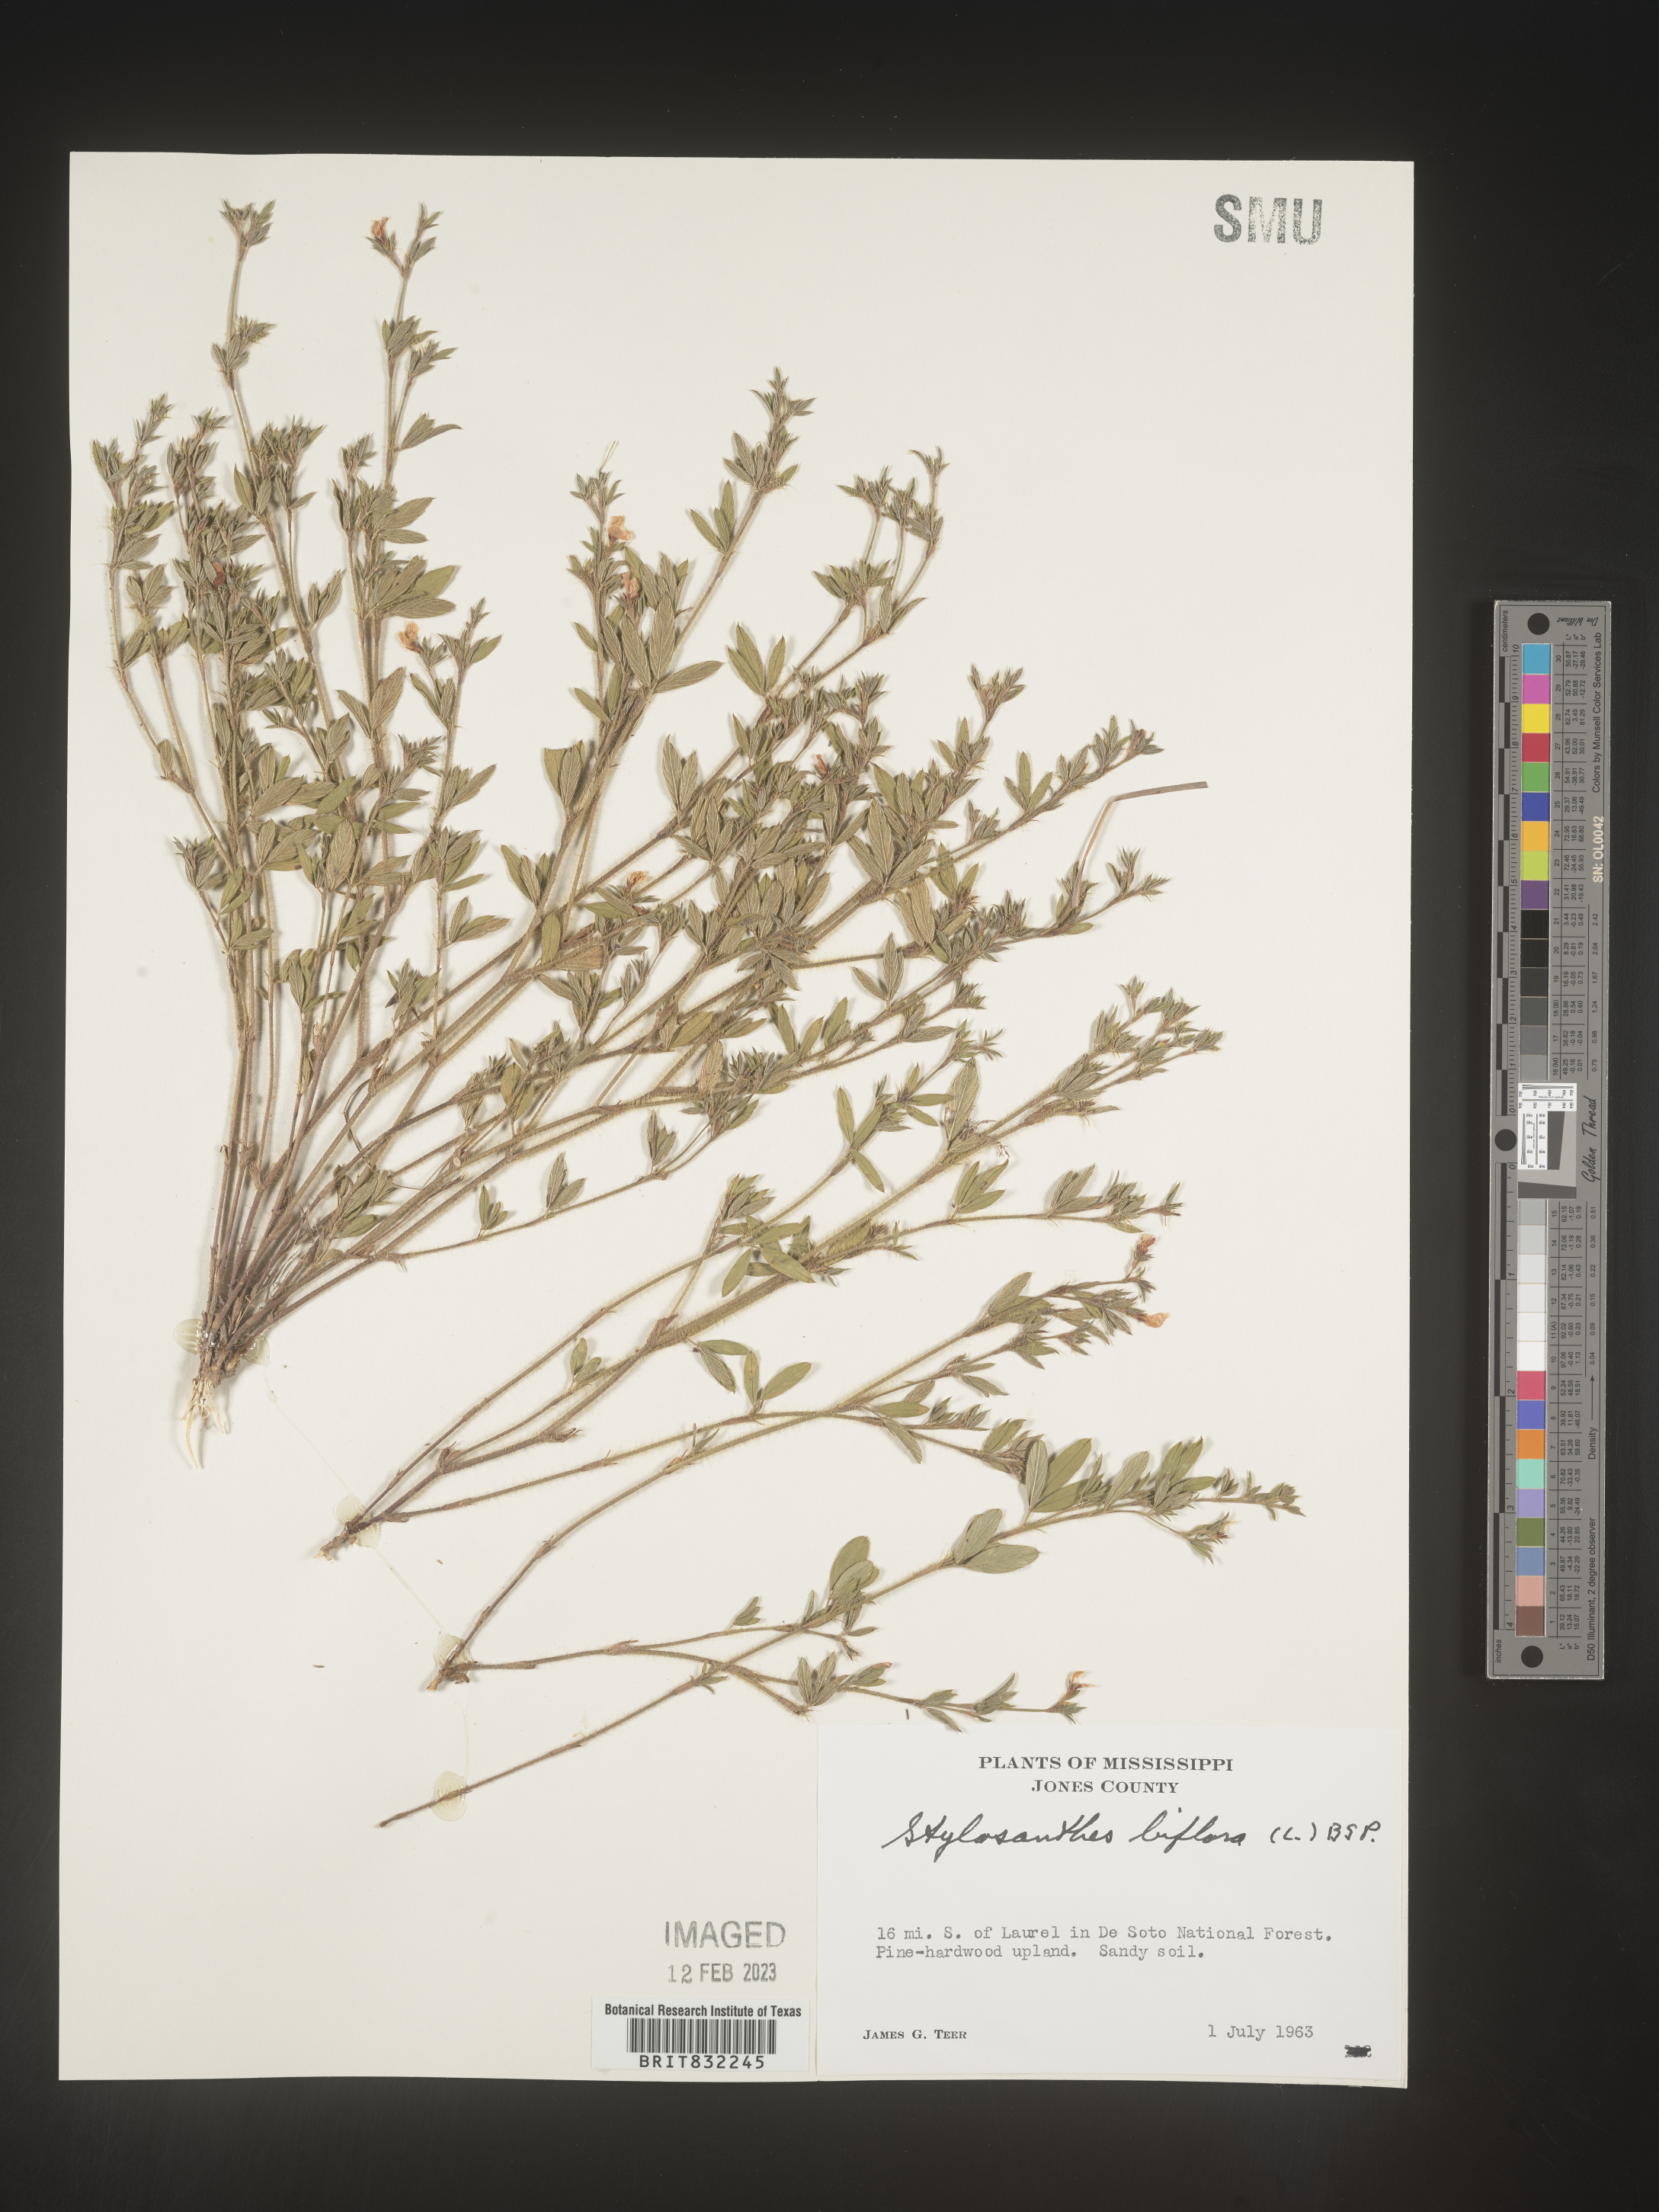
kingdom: Plantae
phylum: Tracheophyta
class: Magnoliopsida
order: Fabales
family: Fabaceae
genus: Stylosanthes
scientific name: Stylosanthes biflora
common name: Two-flower pencil-flower
